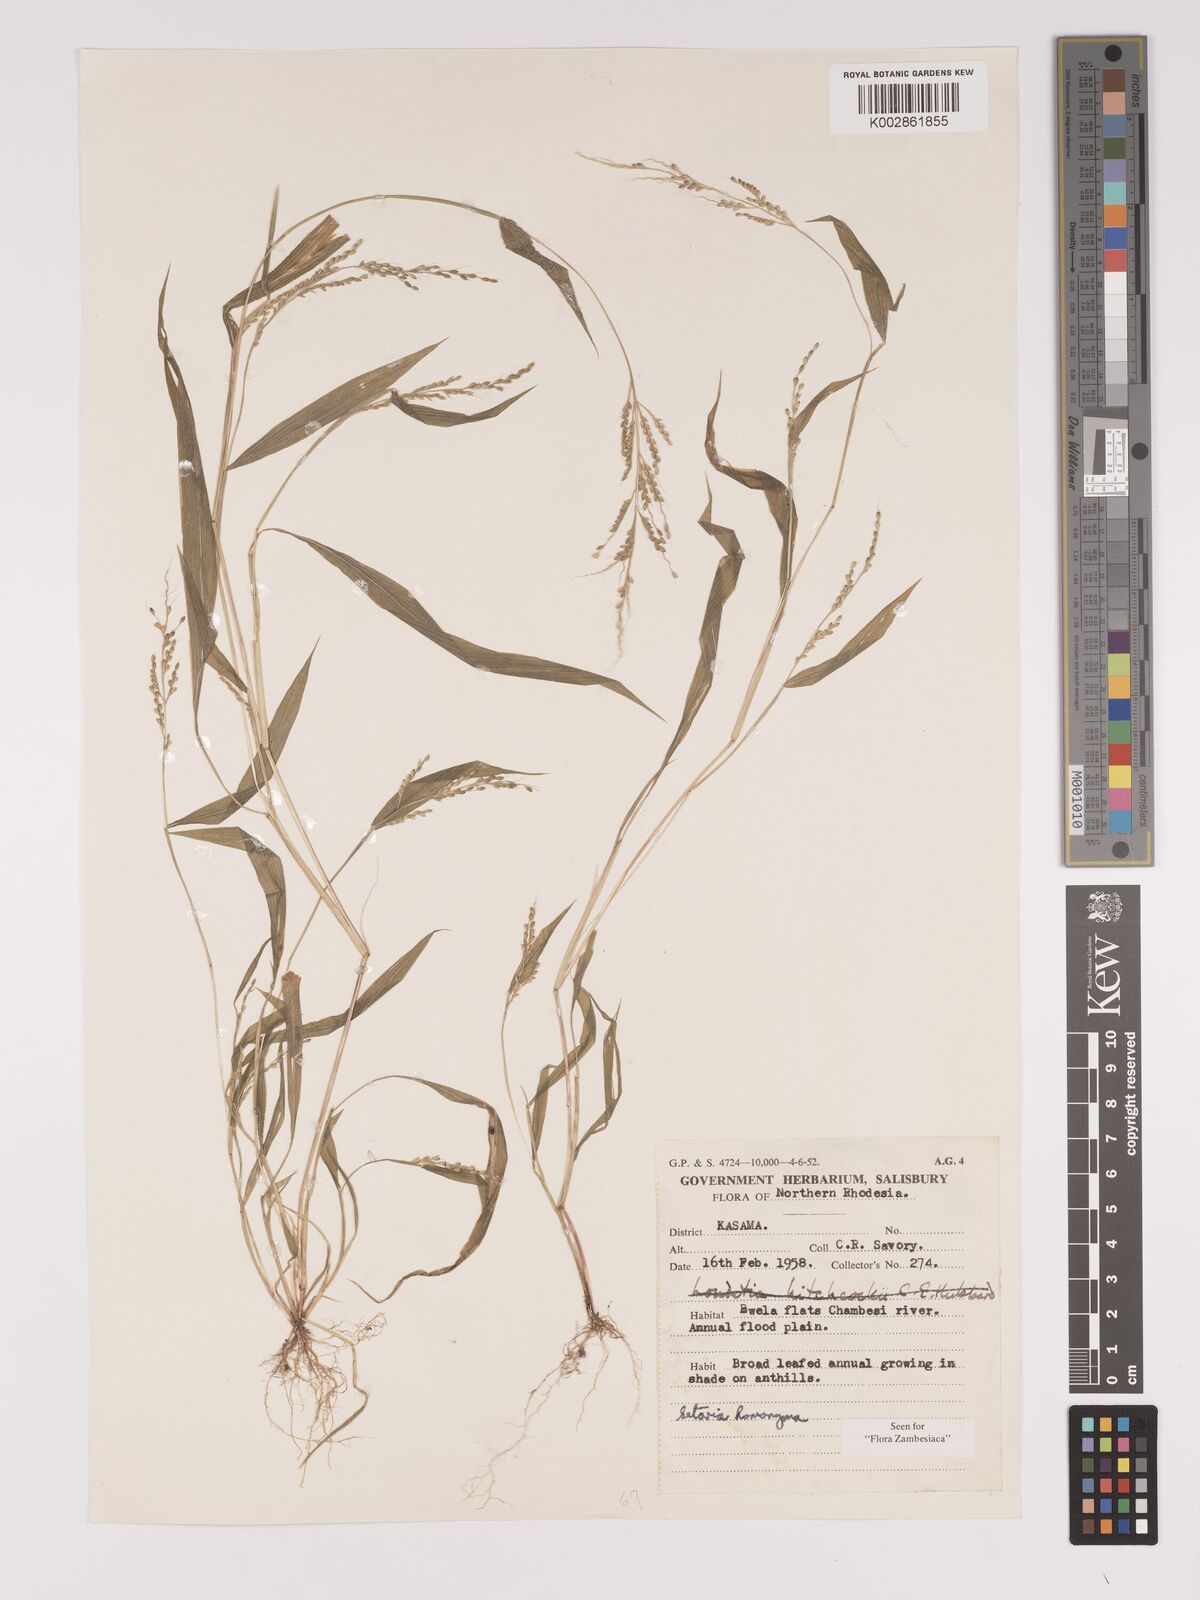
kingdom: Plantae
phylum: Tracheophyta
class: Liliopsida
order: Poales
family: Poaceae
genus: Setaria
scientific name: Setaria homonyma
